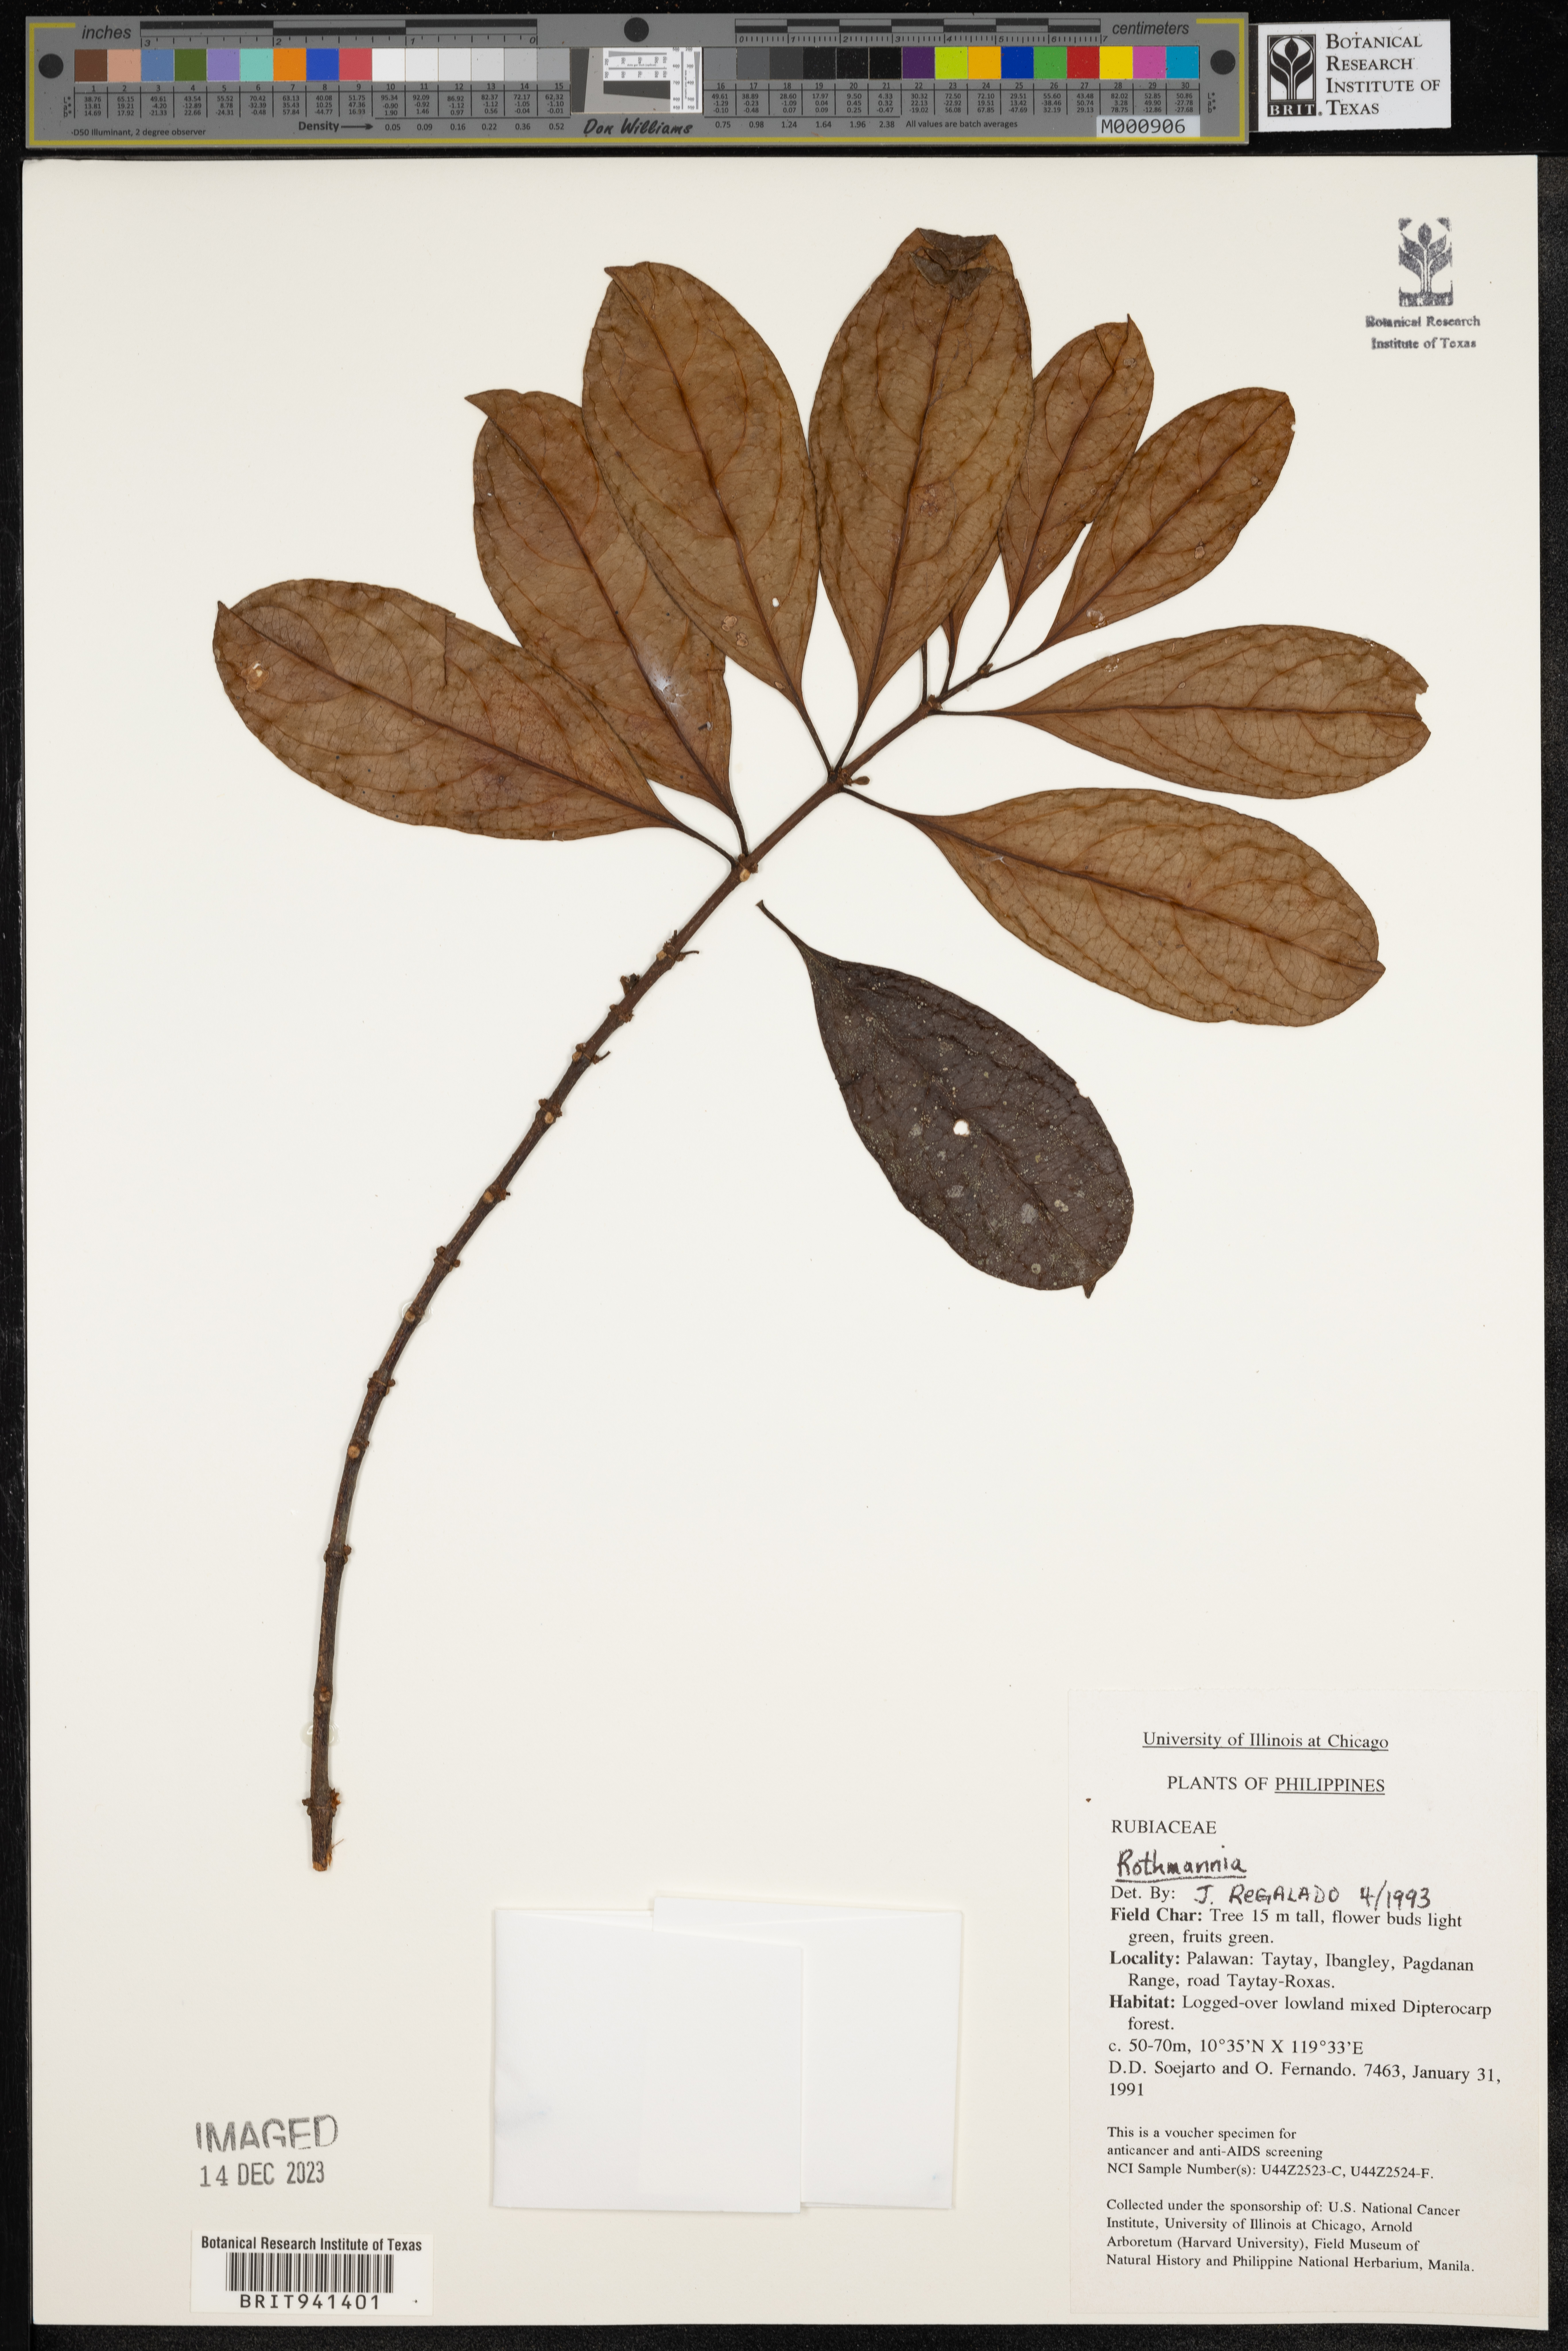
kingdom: Plantae
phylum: Tracheophyta
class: Magnoliopsida
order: Gentianales
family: Rubiaceae
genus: Rothmannia
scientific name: Rothmannia
